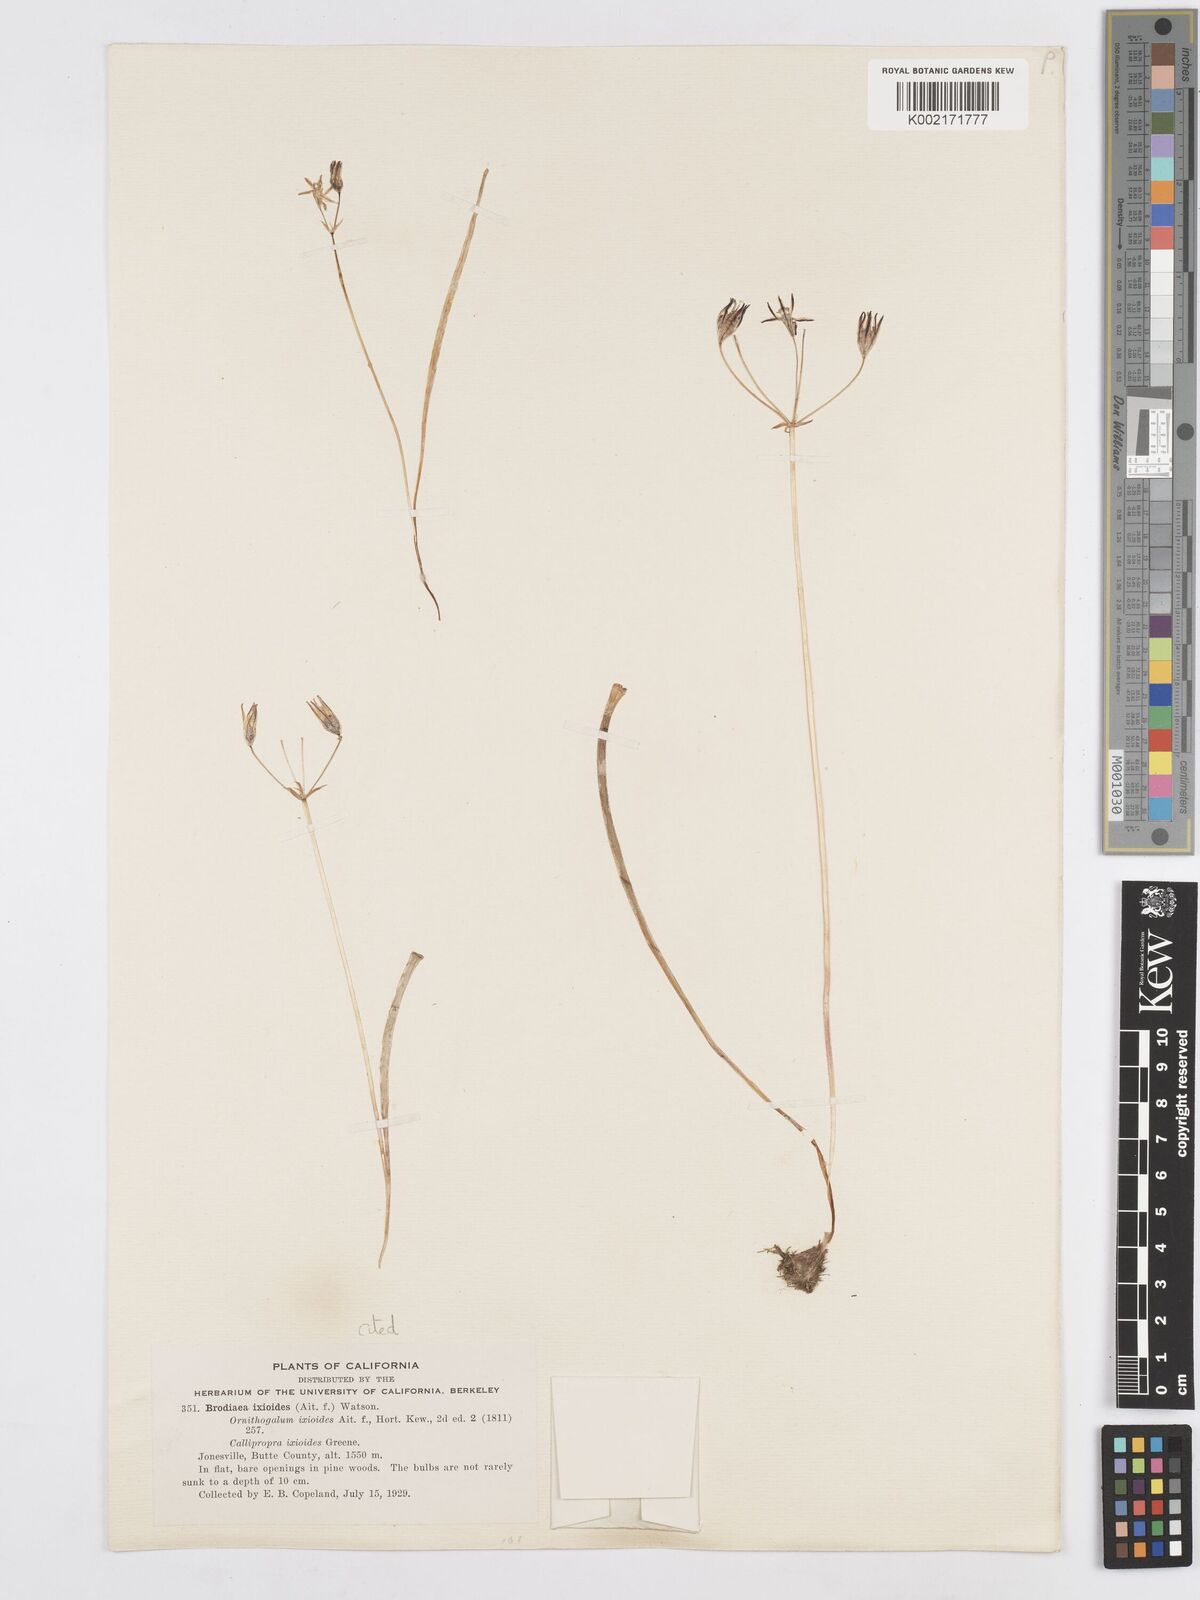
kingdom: Plantae
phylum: Tracheophyta
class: Liliopsida
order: Asparagales
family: Asparagaceae
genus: Triteleia
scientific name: Triteleia ixioides
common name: Yellow-brodiaea
